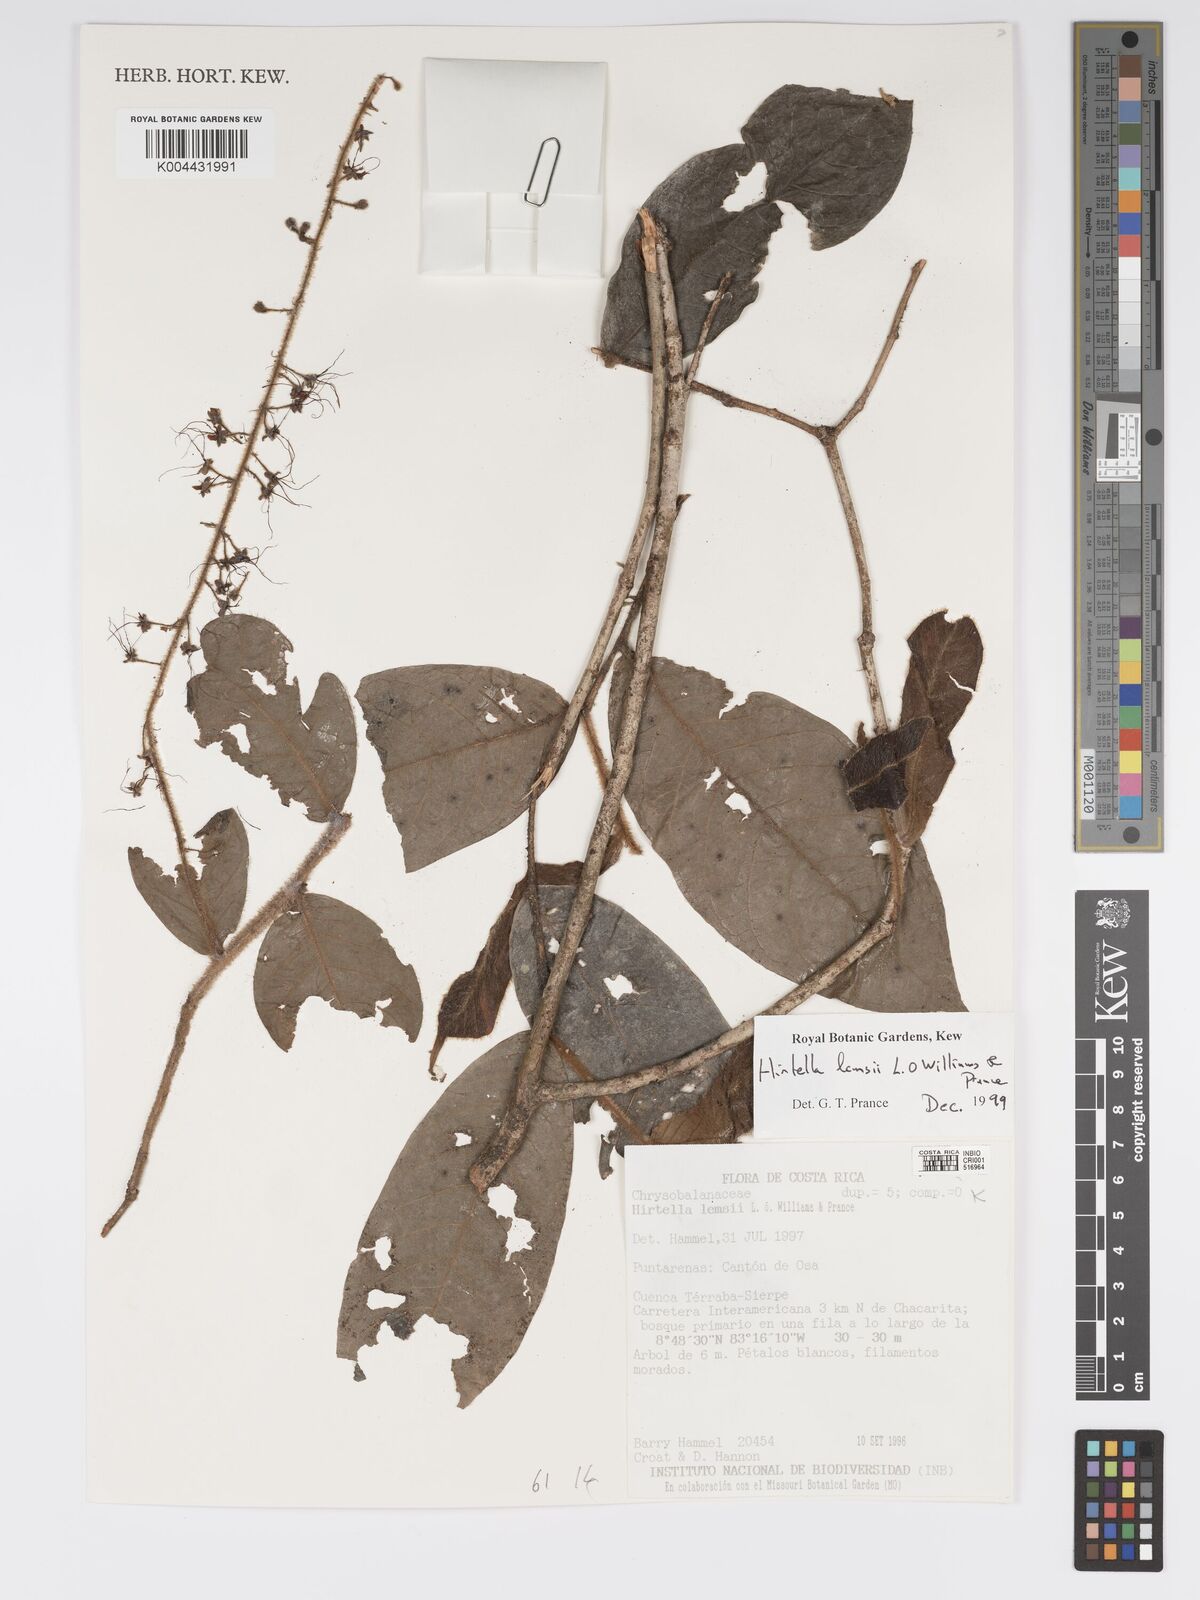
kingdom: Plantae
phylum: Tracheophyta
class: Magnoliopsida
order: Malpighiales
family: Chrysobalanaceae
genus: Hirtella
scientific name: Hirtella lemsii
